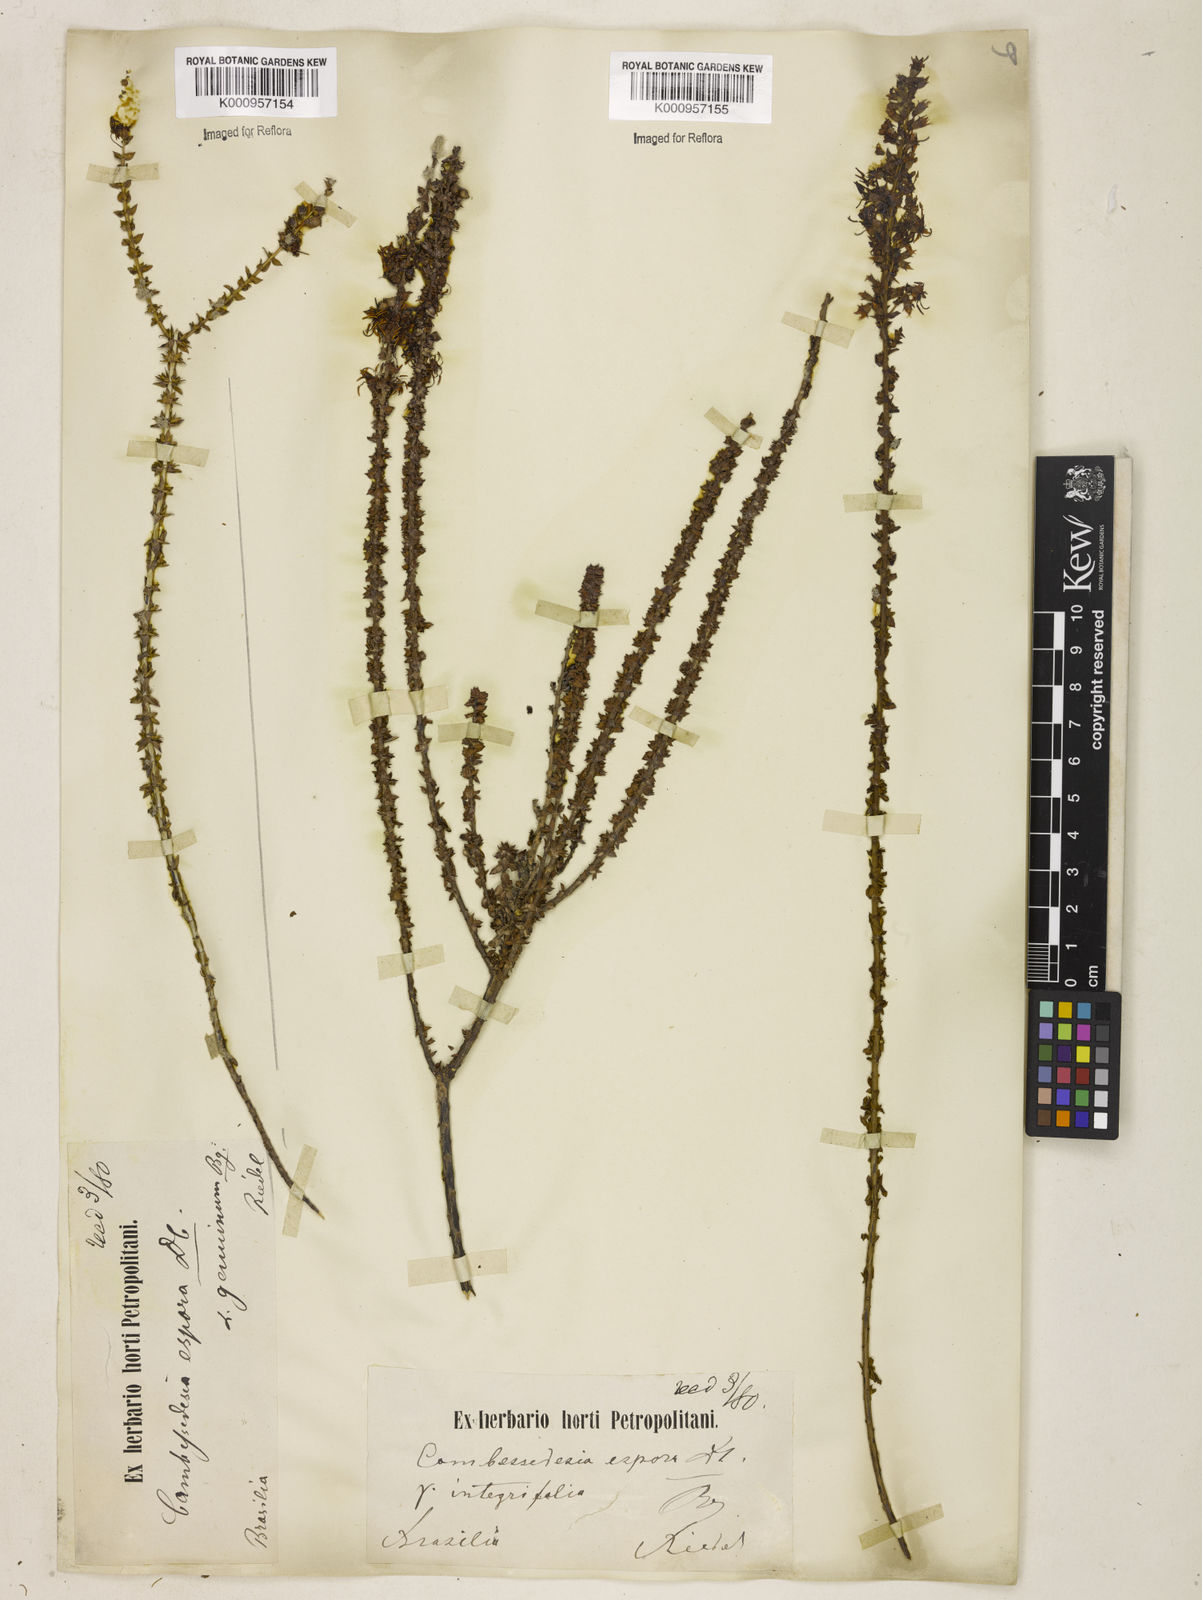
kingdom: Plantae
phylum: Tracheophyta
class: Magnoliopsida
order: Myrtales
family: Melastomataceae
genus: Cambessedesia
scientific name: Cambessedesia espora
